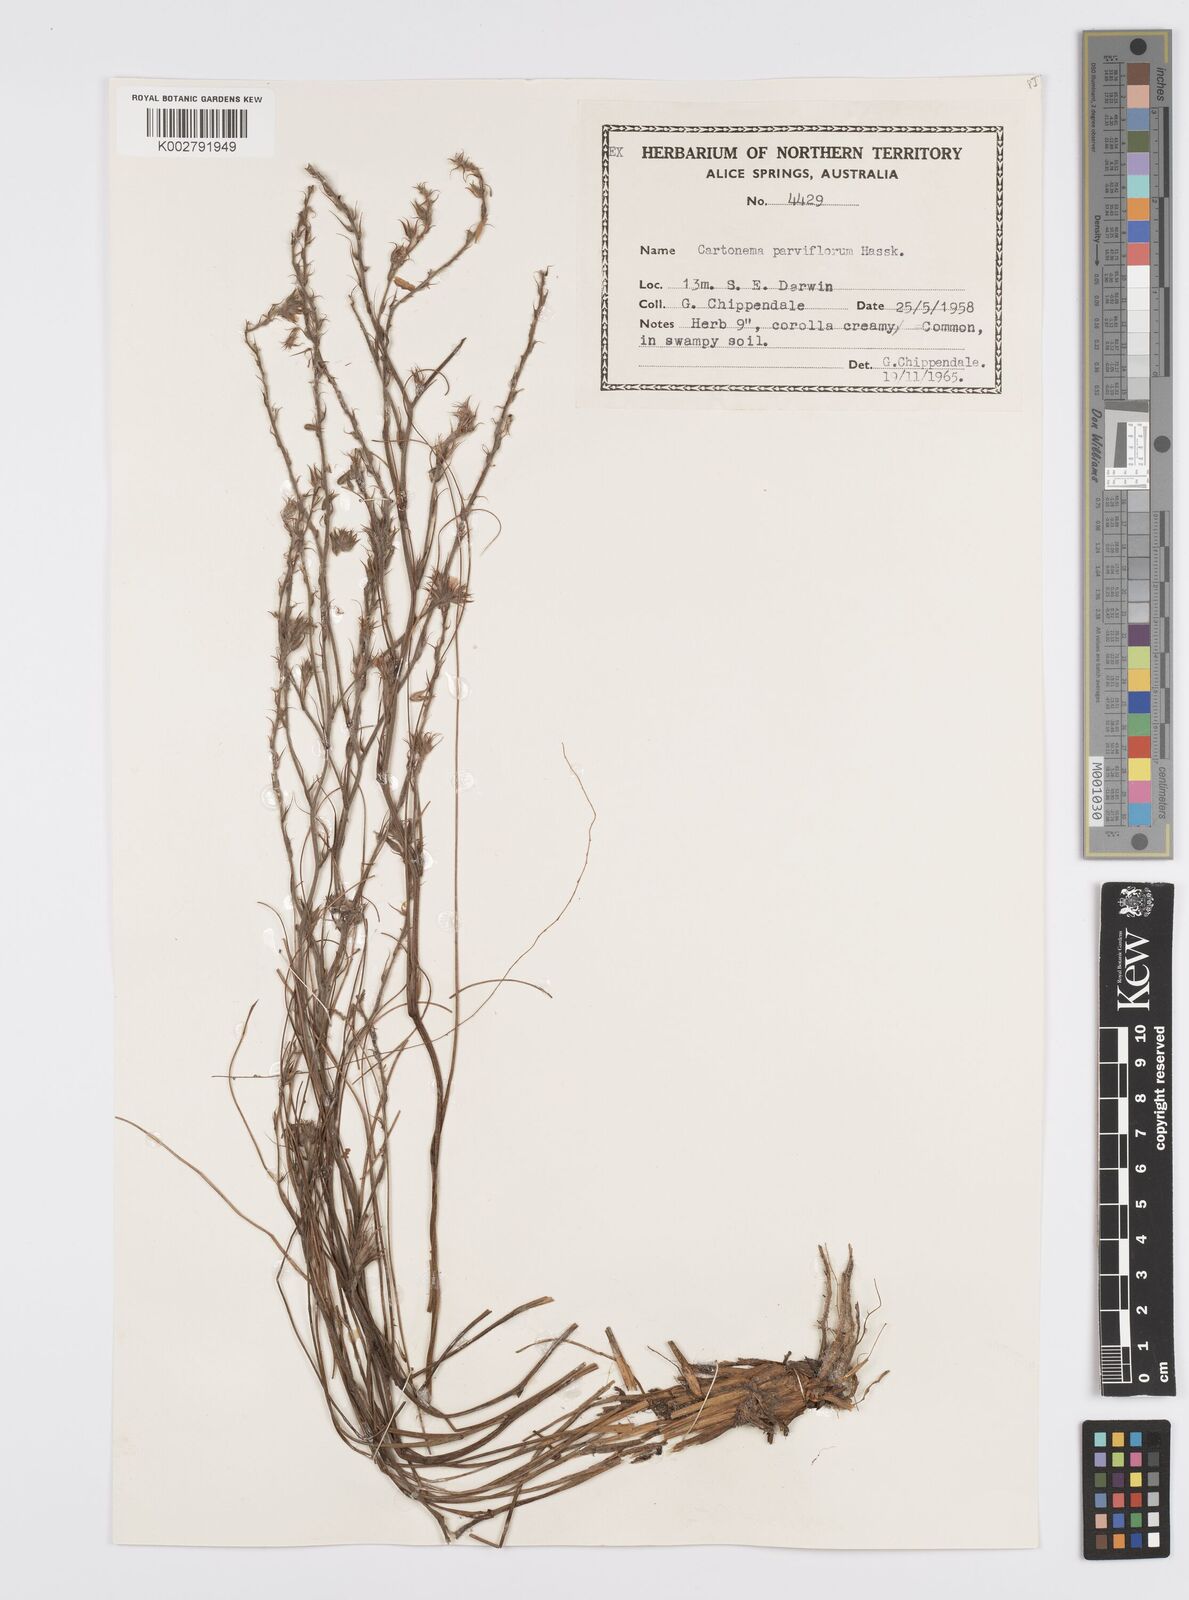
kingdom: Plantae
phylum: Tracheophyta
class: Liliopsida
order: Commelinales
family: Commelinaceae
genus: Cartonema
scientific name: Cartonema parviflorum
